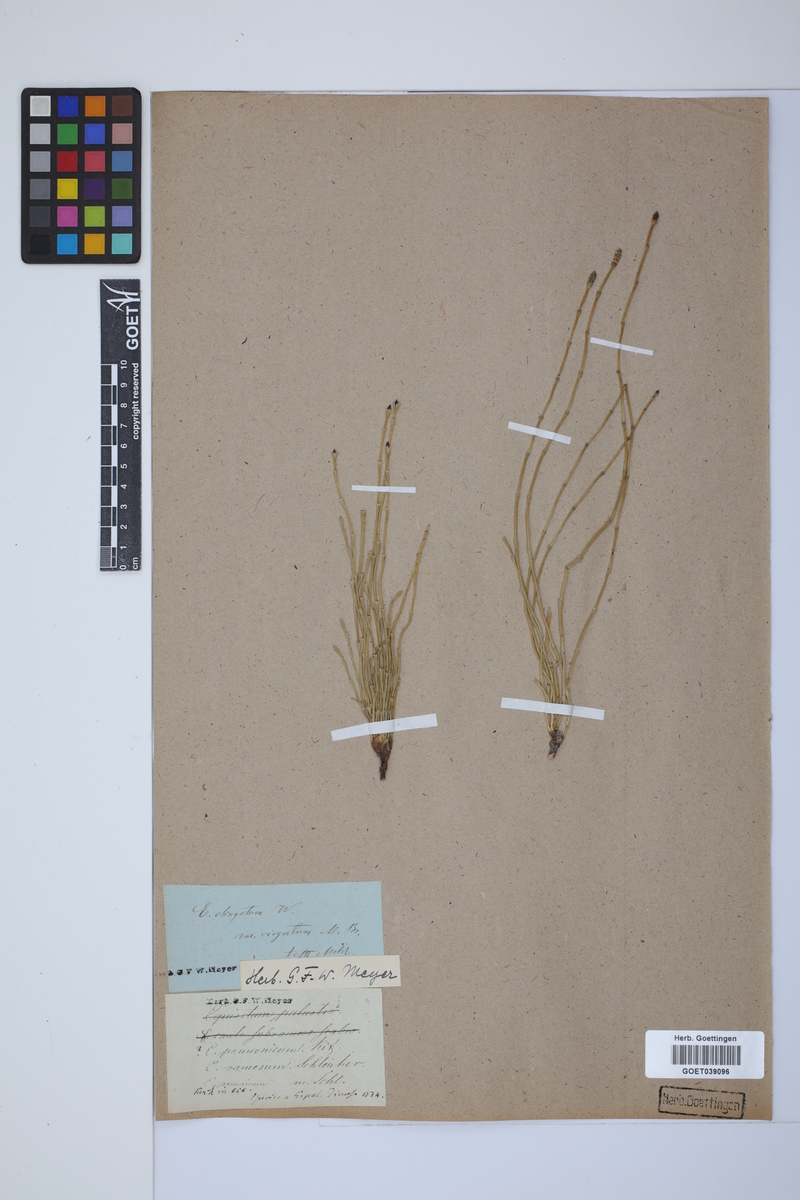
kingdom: Plantae
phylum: Tracheophyta
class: Polypodiopsida
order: Equisetales
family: Equisetaceae
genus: Equisetum
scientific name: Equisetum giganteum
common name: Giant horsetail
